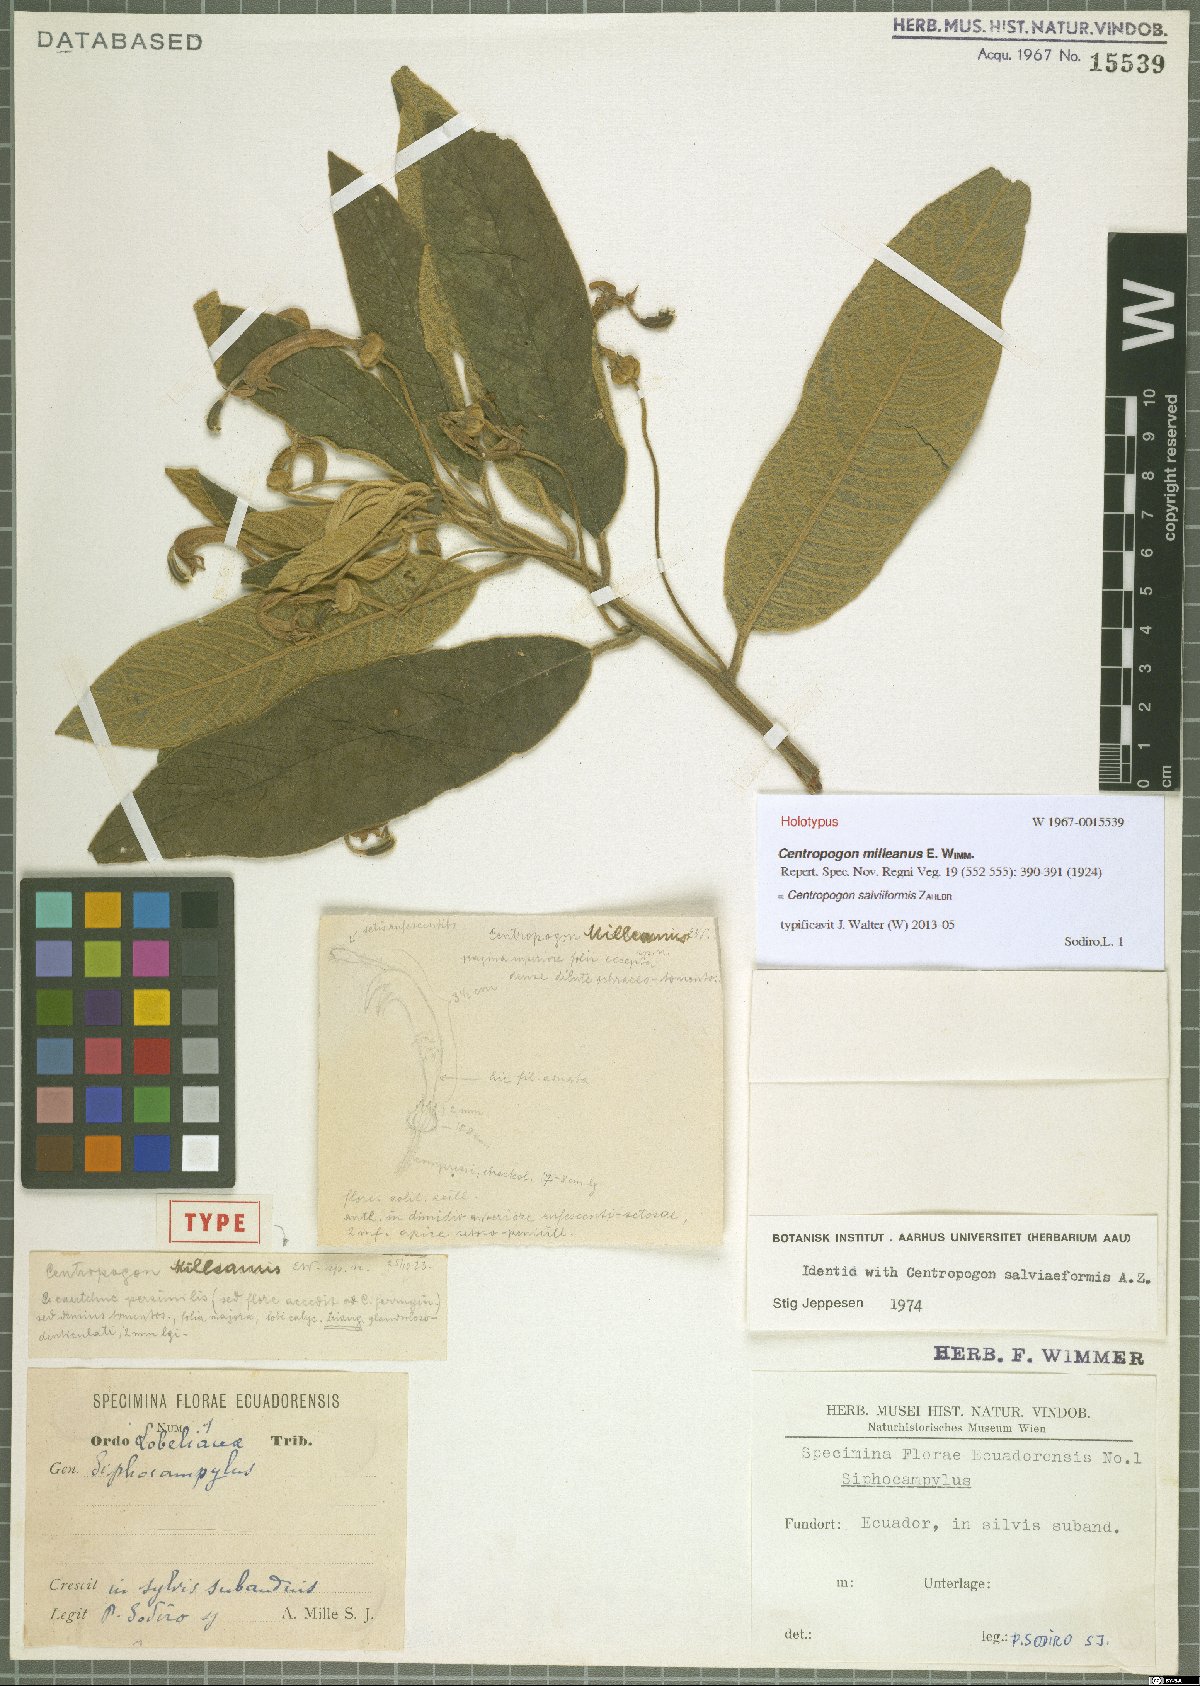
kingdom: Plantae
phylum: Tracheophyta
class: Magnoliopsida
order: Asterales
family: Campanulaceae
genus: Centropogon
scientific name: Centropogon salviiformis
